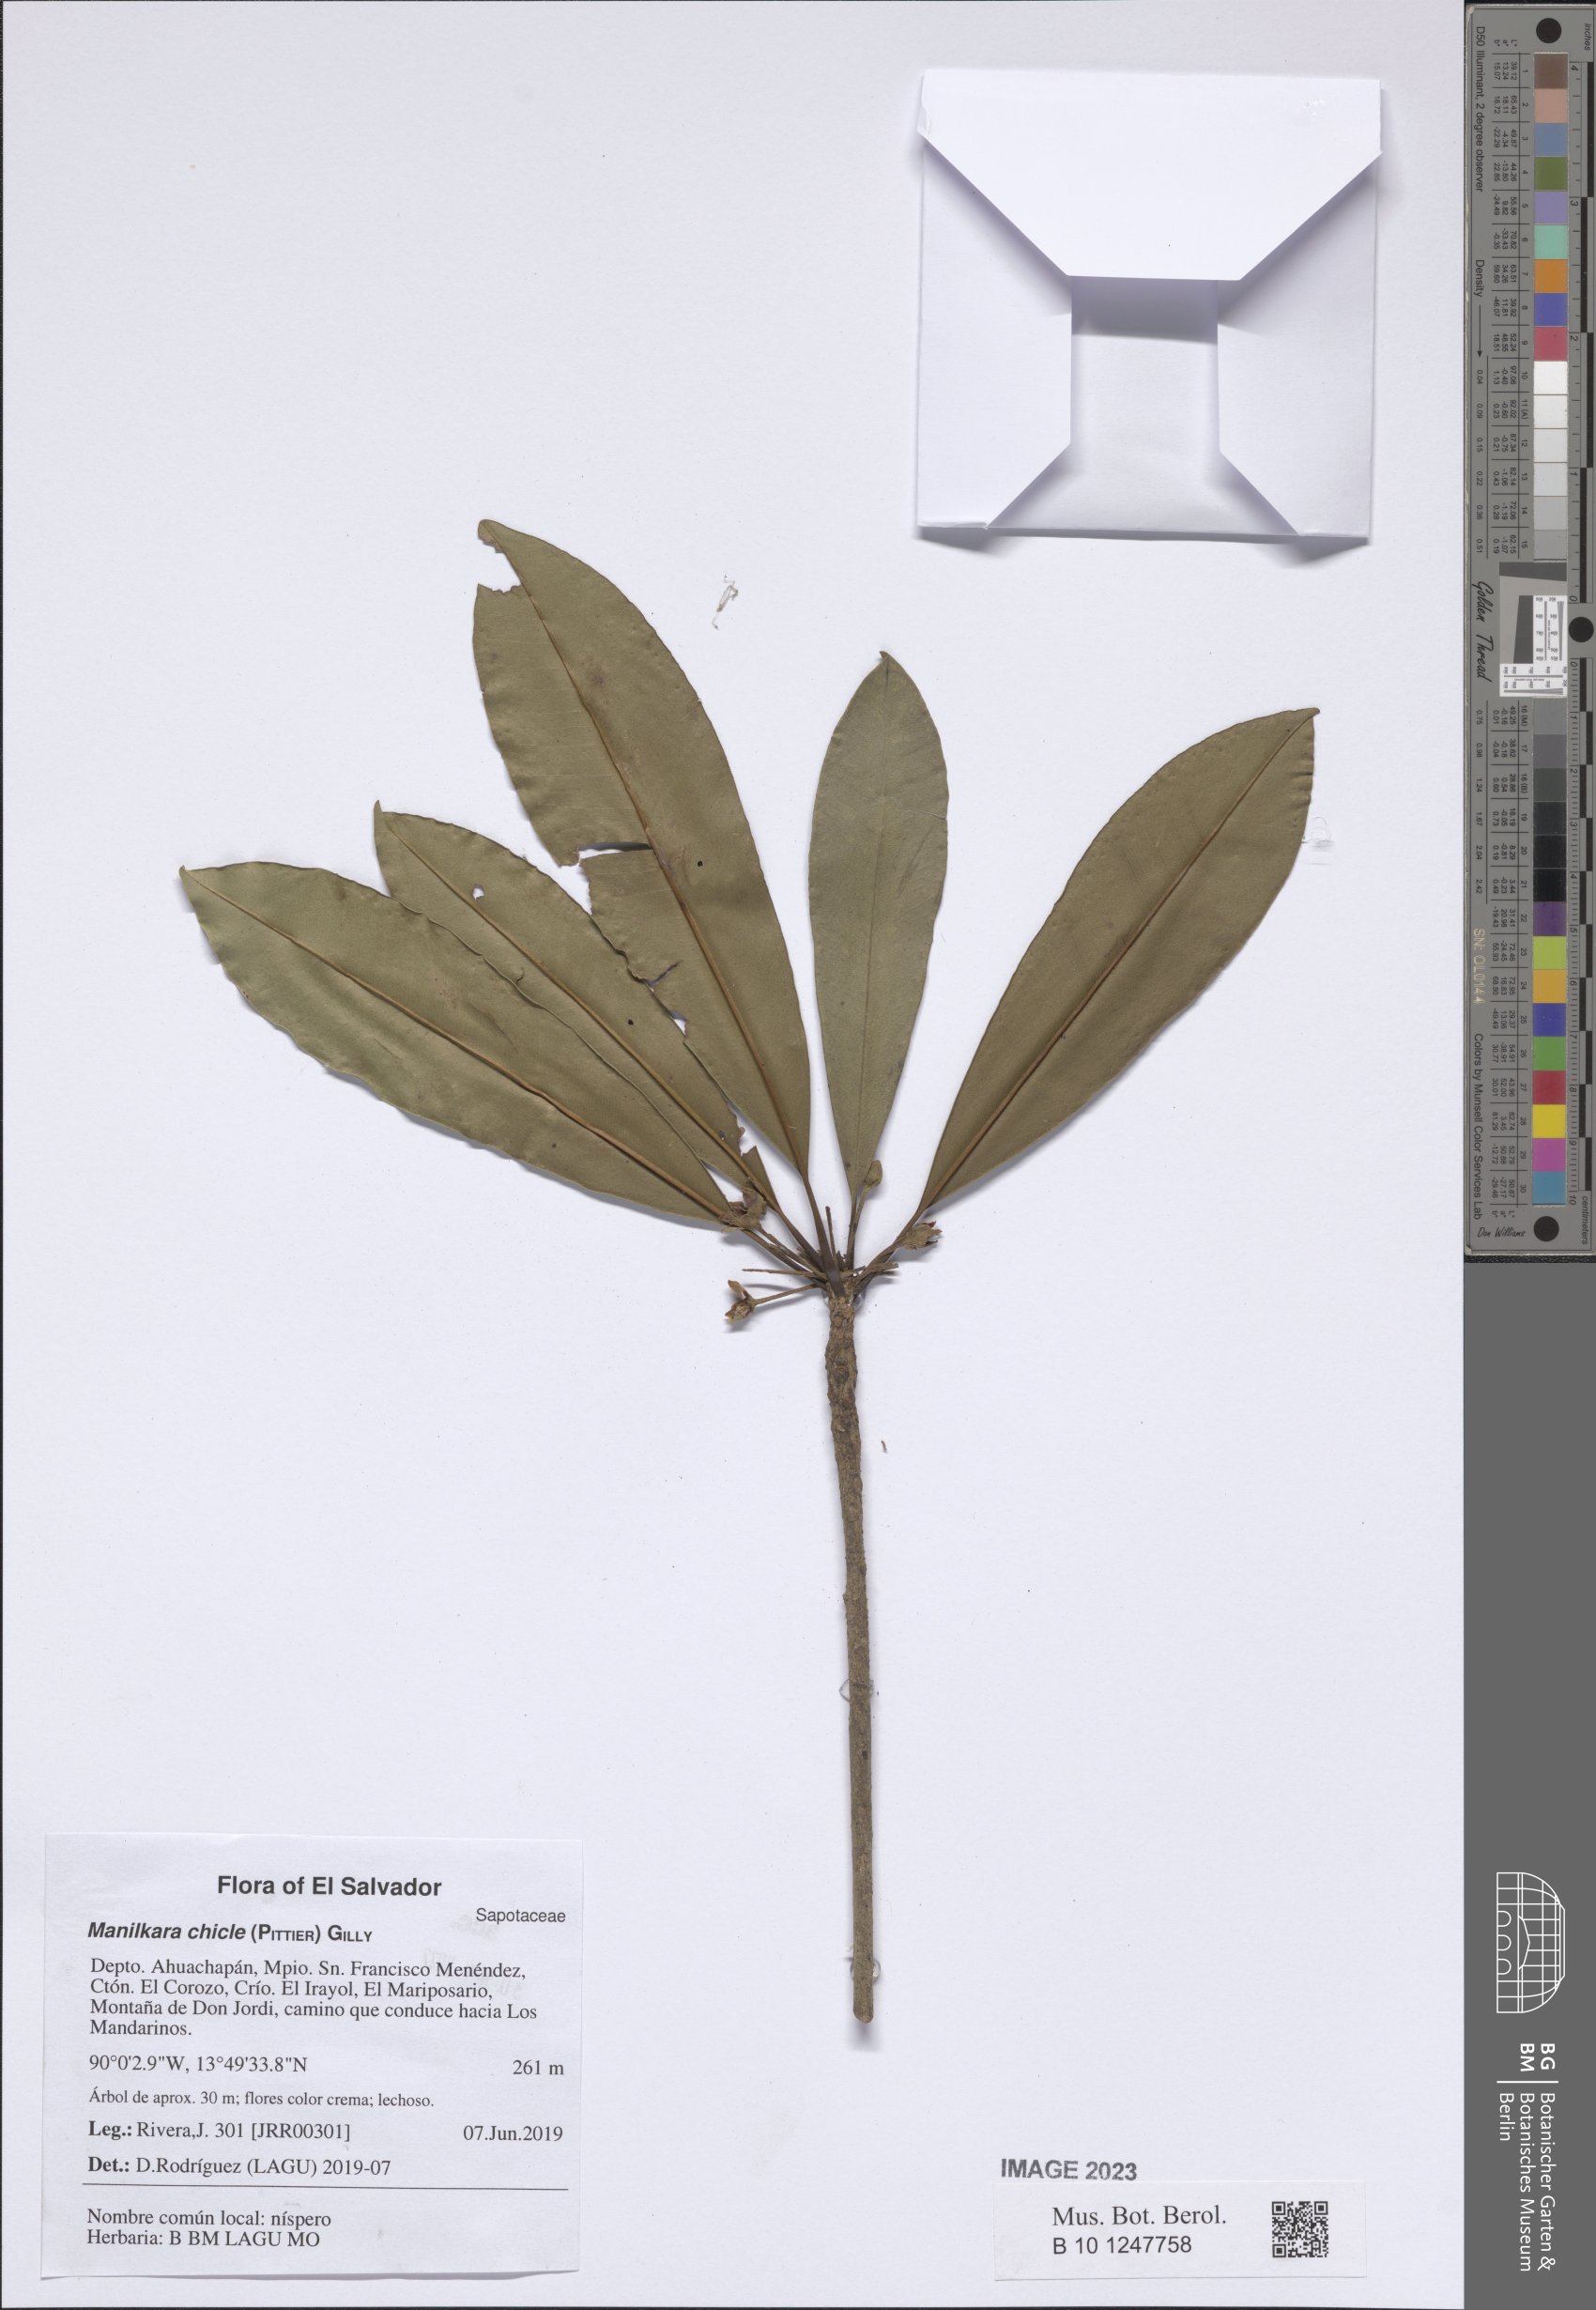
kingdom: Plantae
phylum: Tracheophyta
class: Magnoliopsida
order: Ericales
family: Sapotaceae
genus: Manilkara
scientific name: Manilkara chicle
